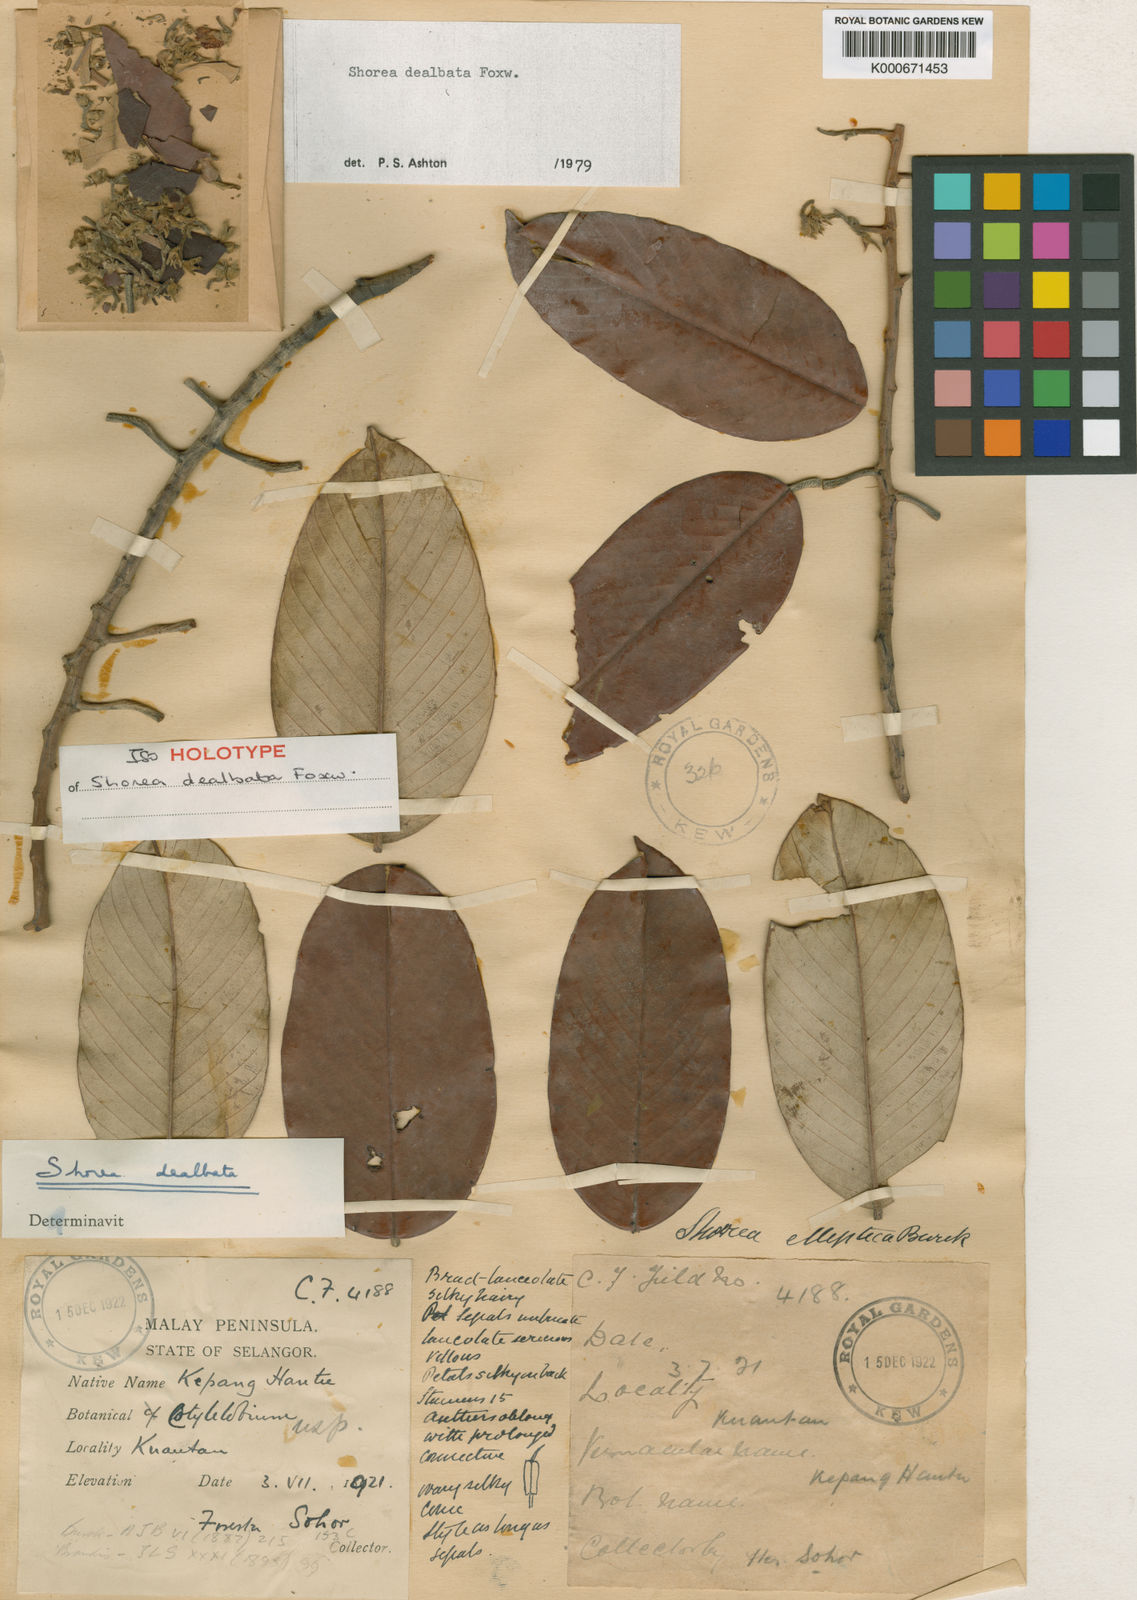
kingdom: Plantae
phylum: Tracheophyta
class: Magnoliopsida
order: Malvales
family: Dipterocarpaceae
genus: Anthoshorea
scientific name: Anthoshorea dealbata
